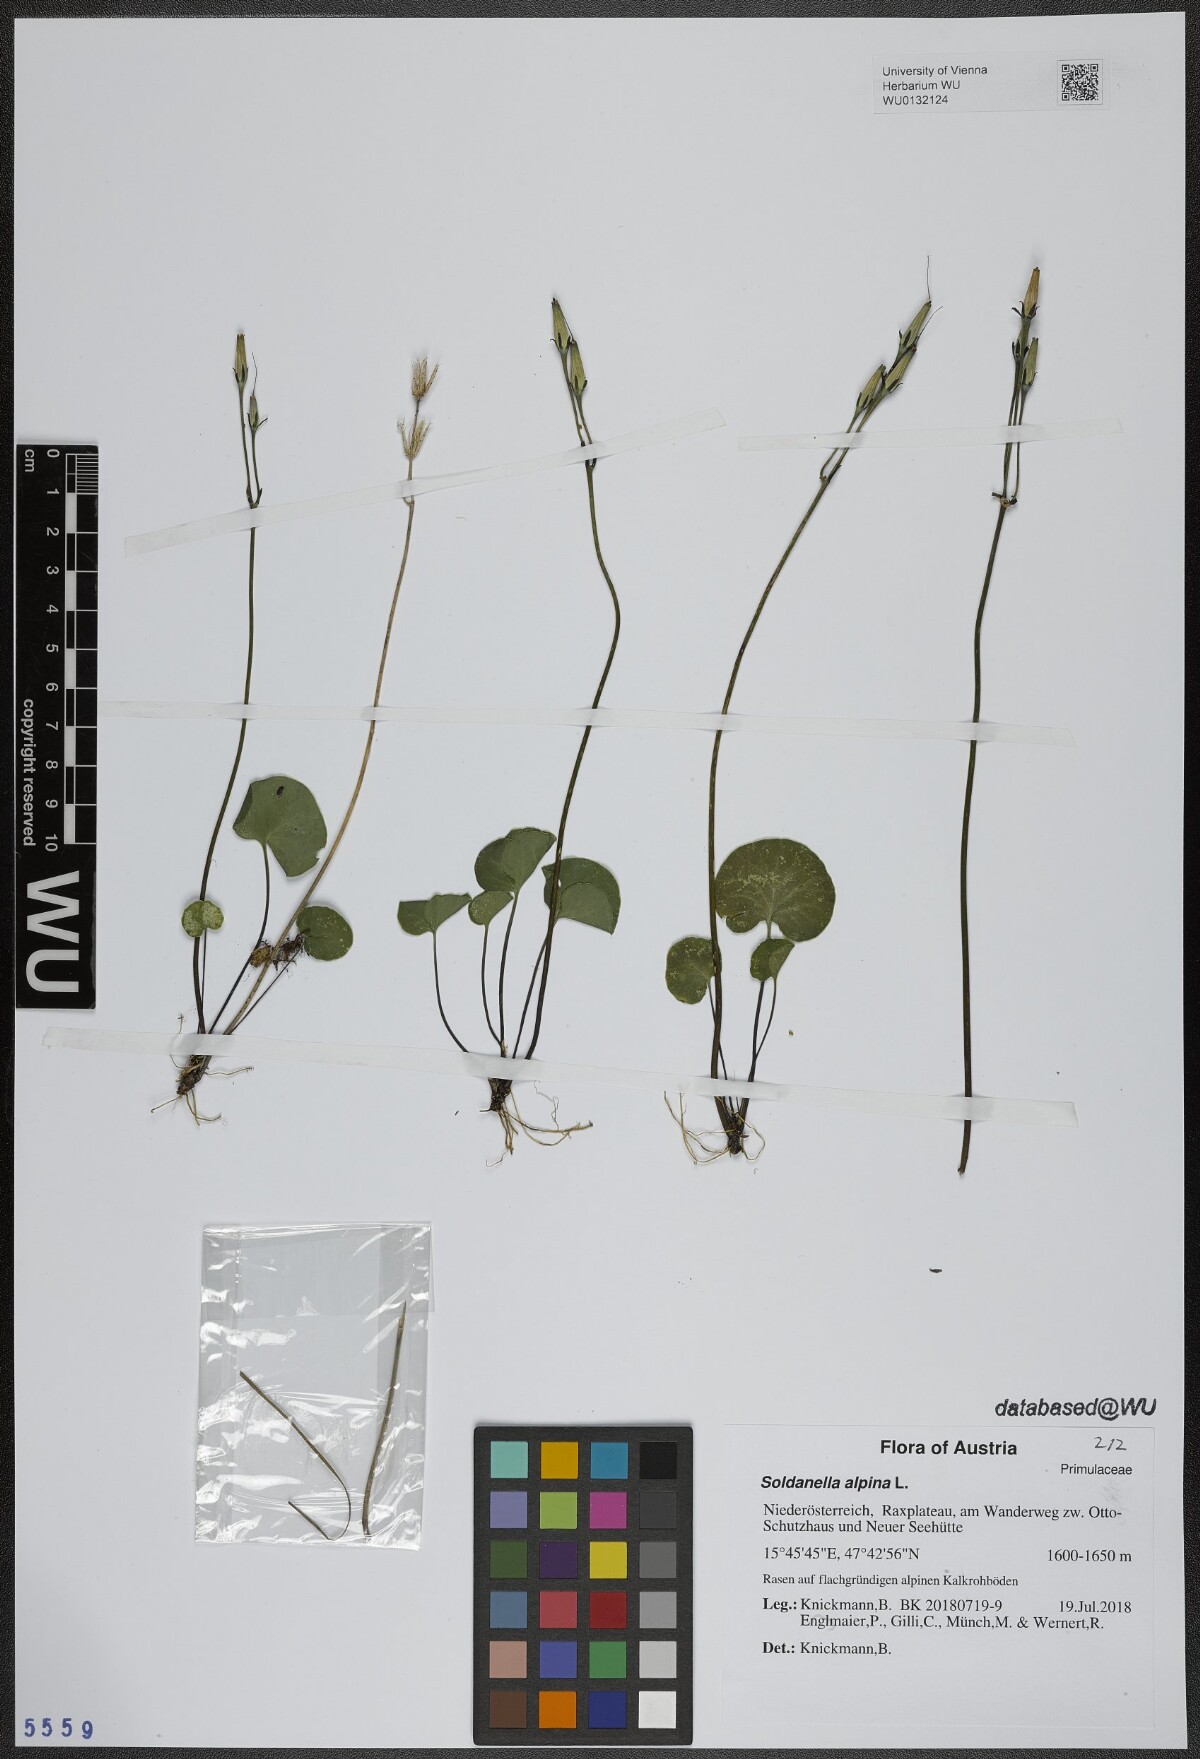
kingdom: Plantae
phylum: Tracheophyta
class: Magnoliopsida
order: Ericales
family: Primulaceae
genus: Soldanella
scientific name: Soldanella alpina
